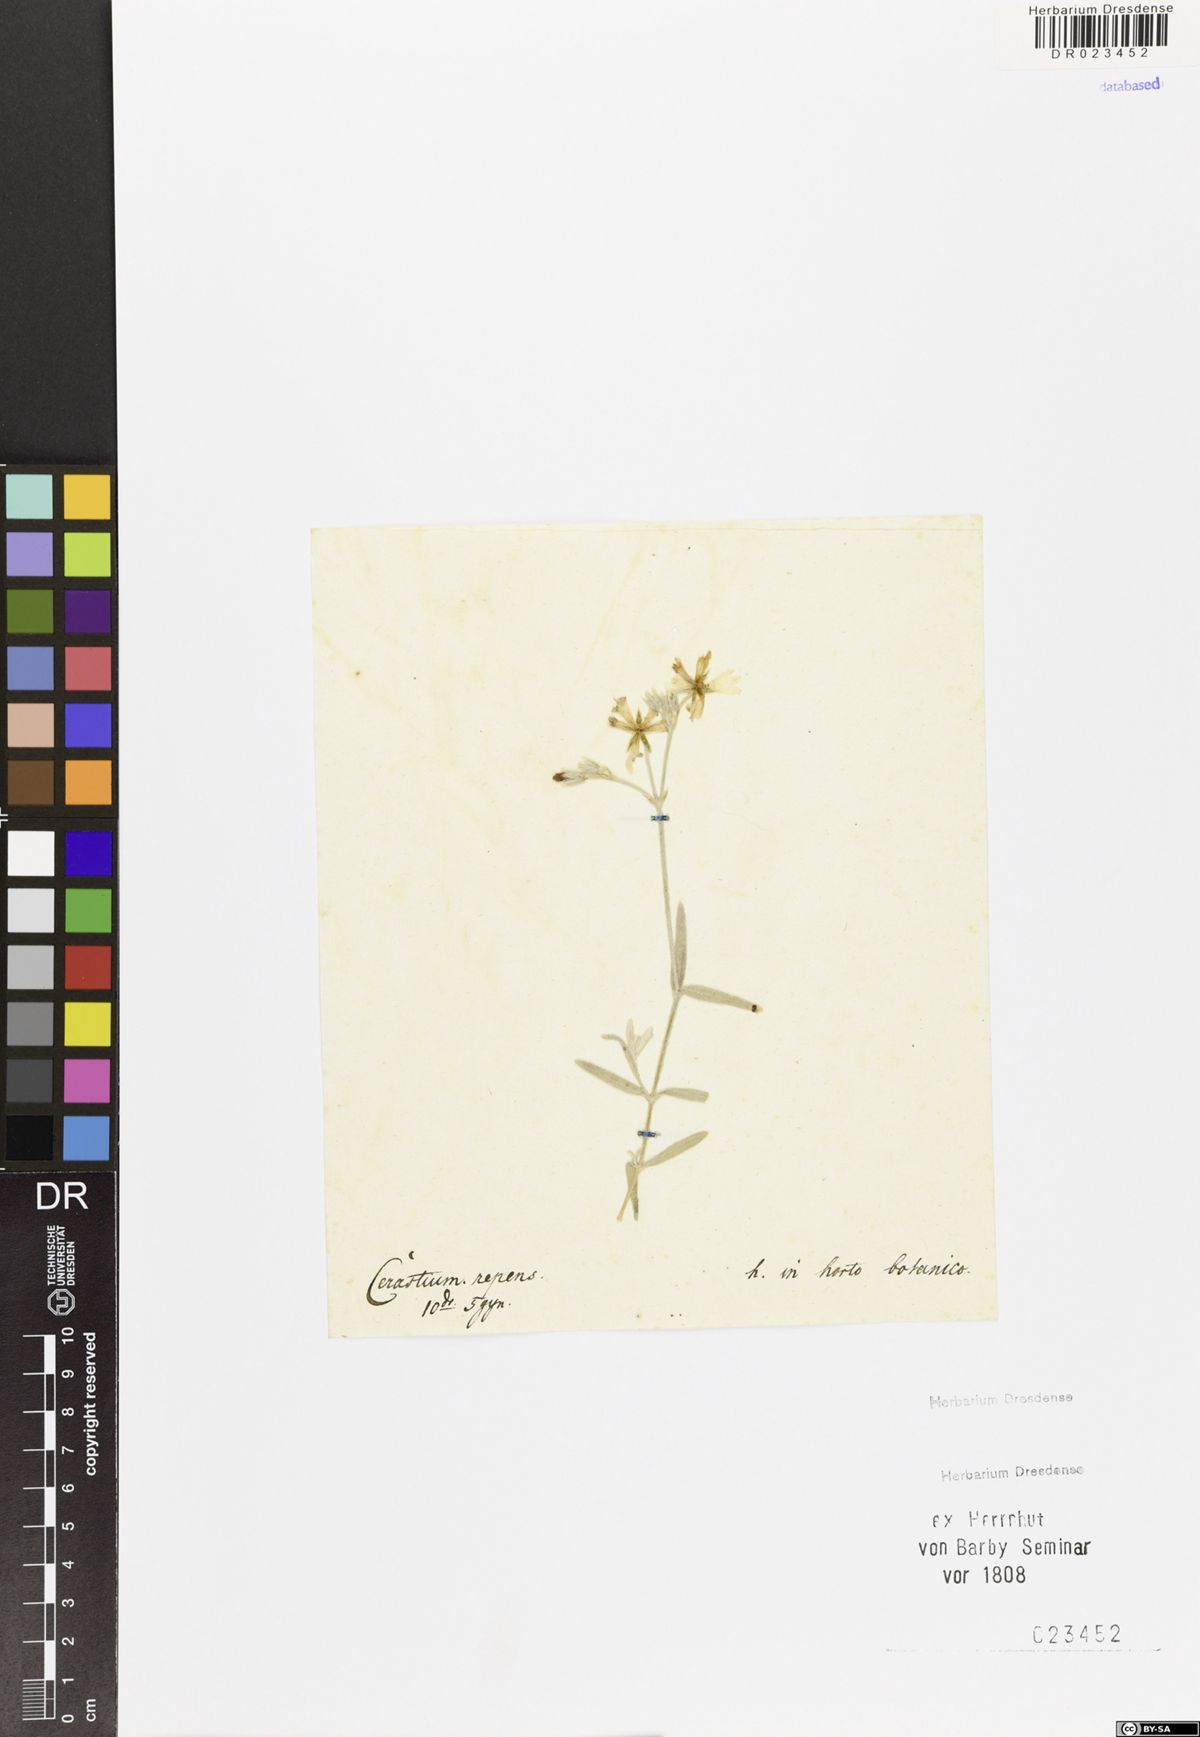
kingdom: Plantae
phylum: Tracheophyta
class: Magnoliopsida
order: Caryophyllales
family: Caryophyllaceae
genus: Cerastium
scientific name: Cerastium tomentosum
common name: Snow-in-summer
